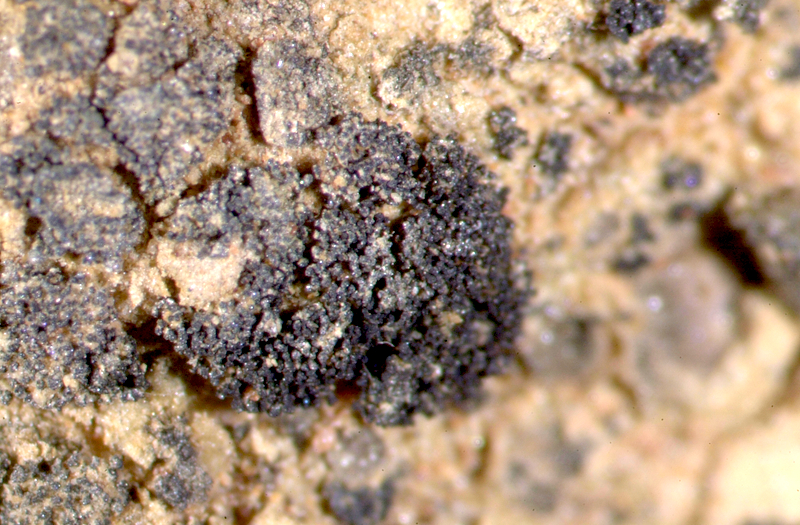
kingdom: Fungi
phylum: Ascomycota
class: Lichinomycetes
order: Lichinales
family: Lichinaceae
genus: Peccania
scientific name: Peccania fontqueriana
